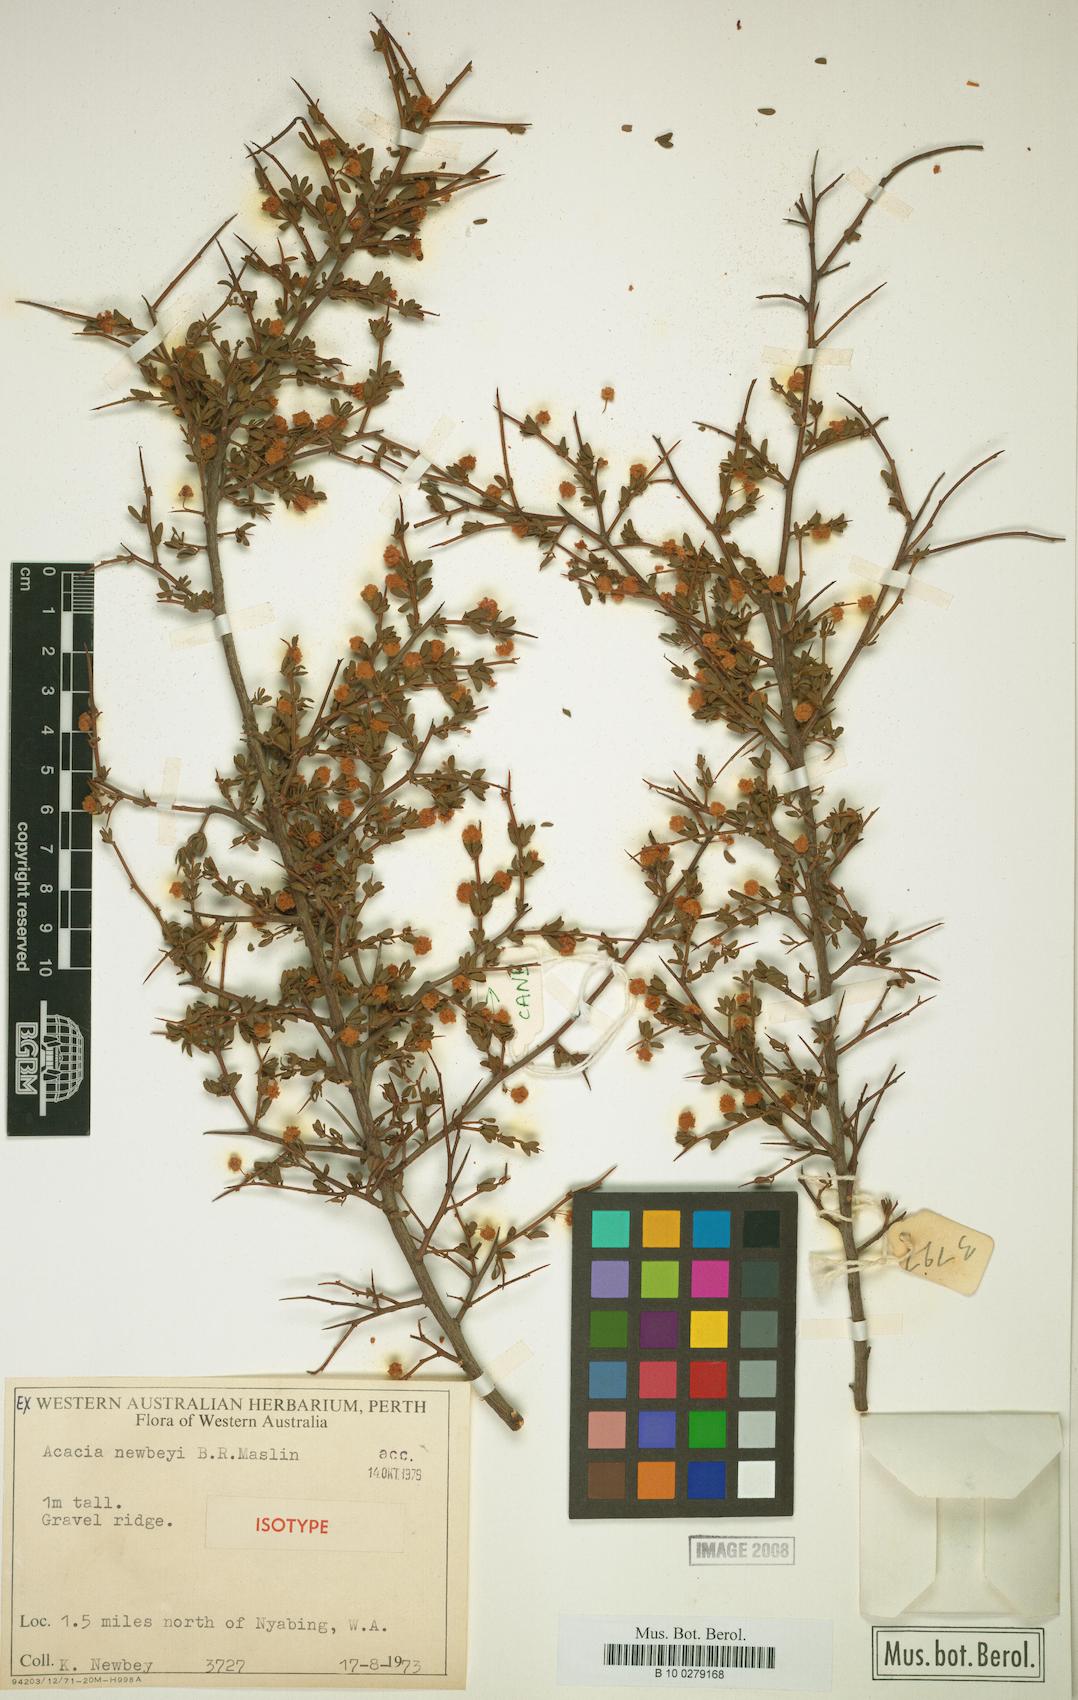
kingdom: Plantae
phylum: Tracheophyta
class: Magnoliopsida
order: Fabales
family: Fabaceae
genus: Acacia
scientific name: Acacia newbeyi
